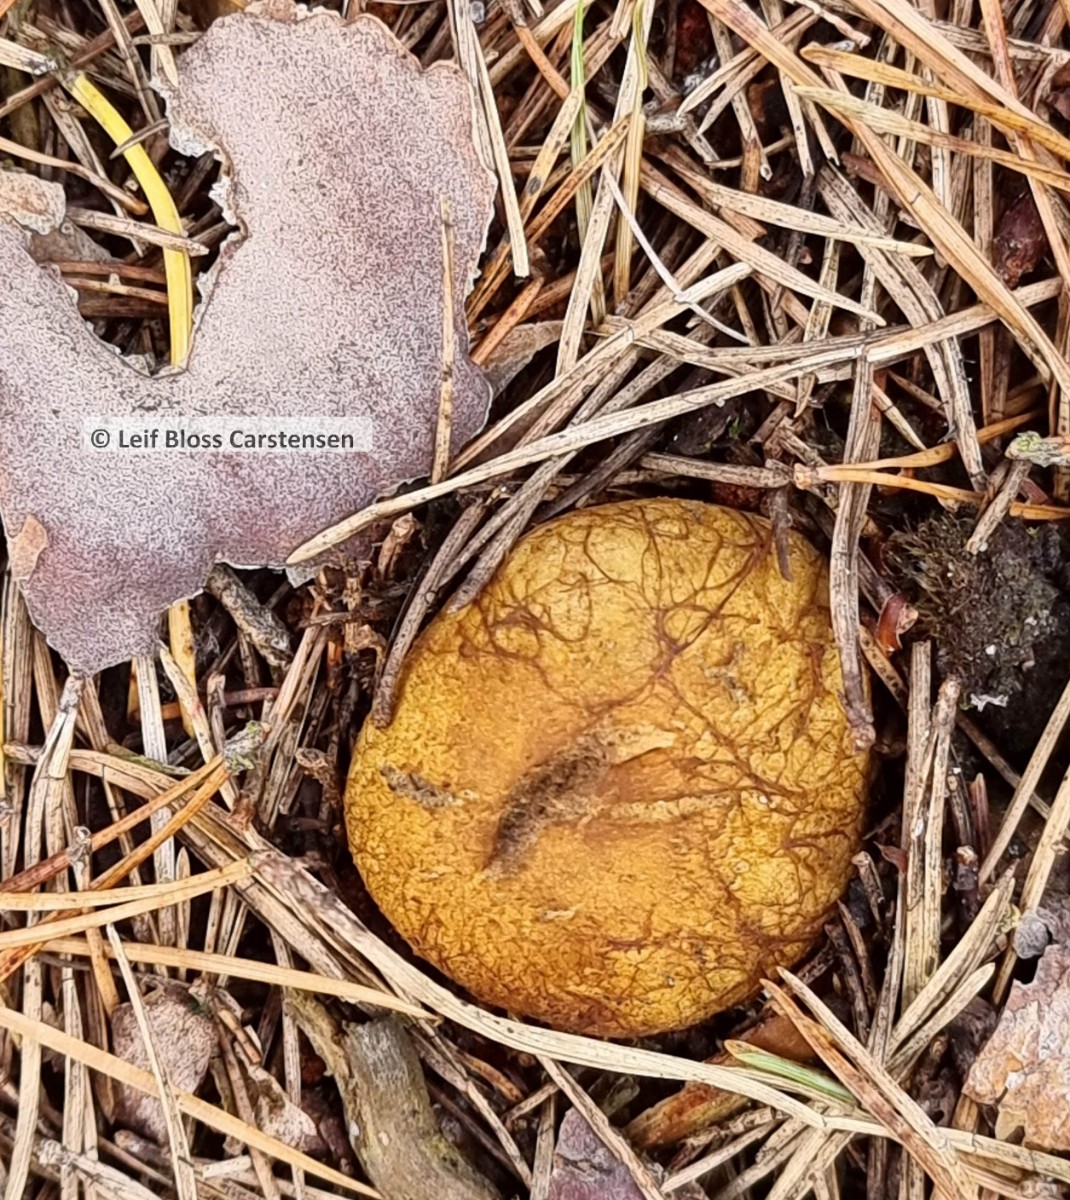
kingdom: Fungi
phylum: Basidiomycota
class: Agaricomycetes
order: Boletales
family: Rhizopogonaceae
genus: Rhizopogon
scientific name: Rhizopogon obtextus
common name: gul skægtrøffel
